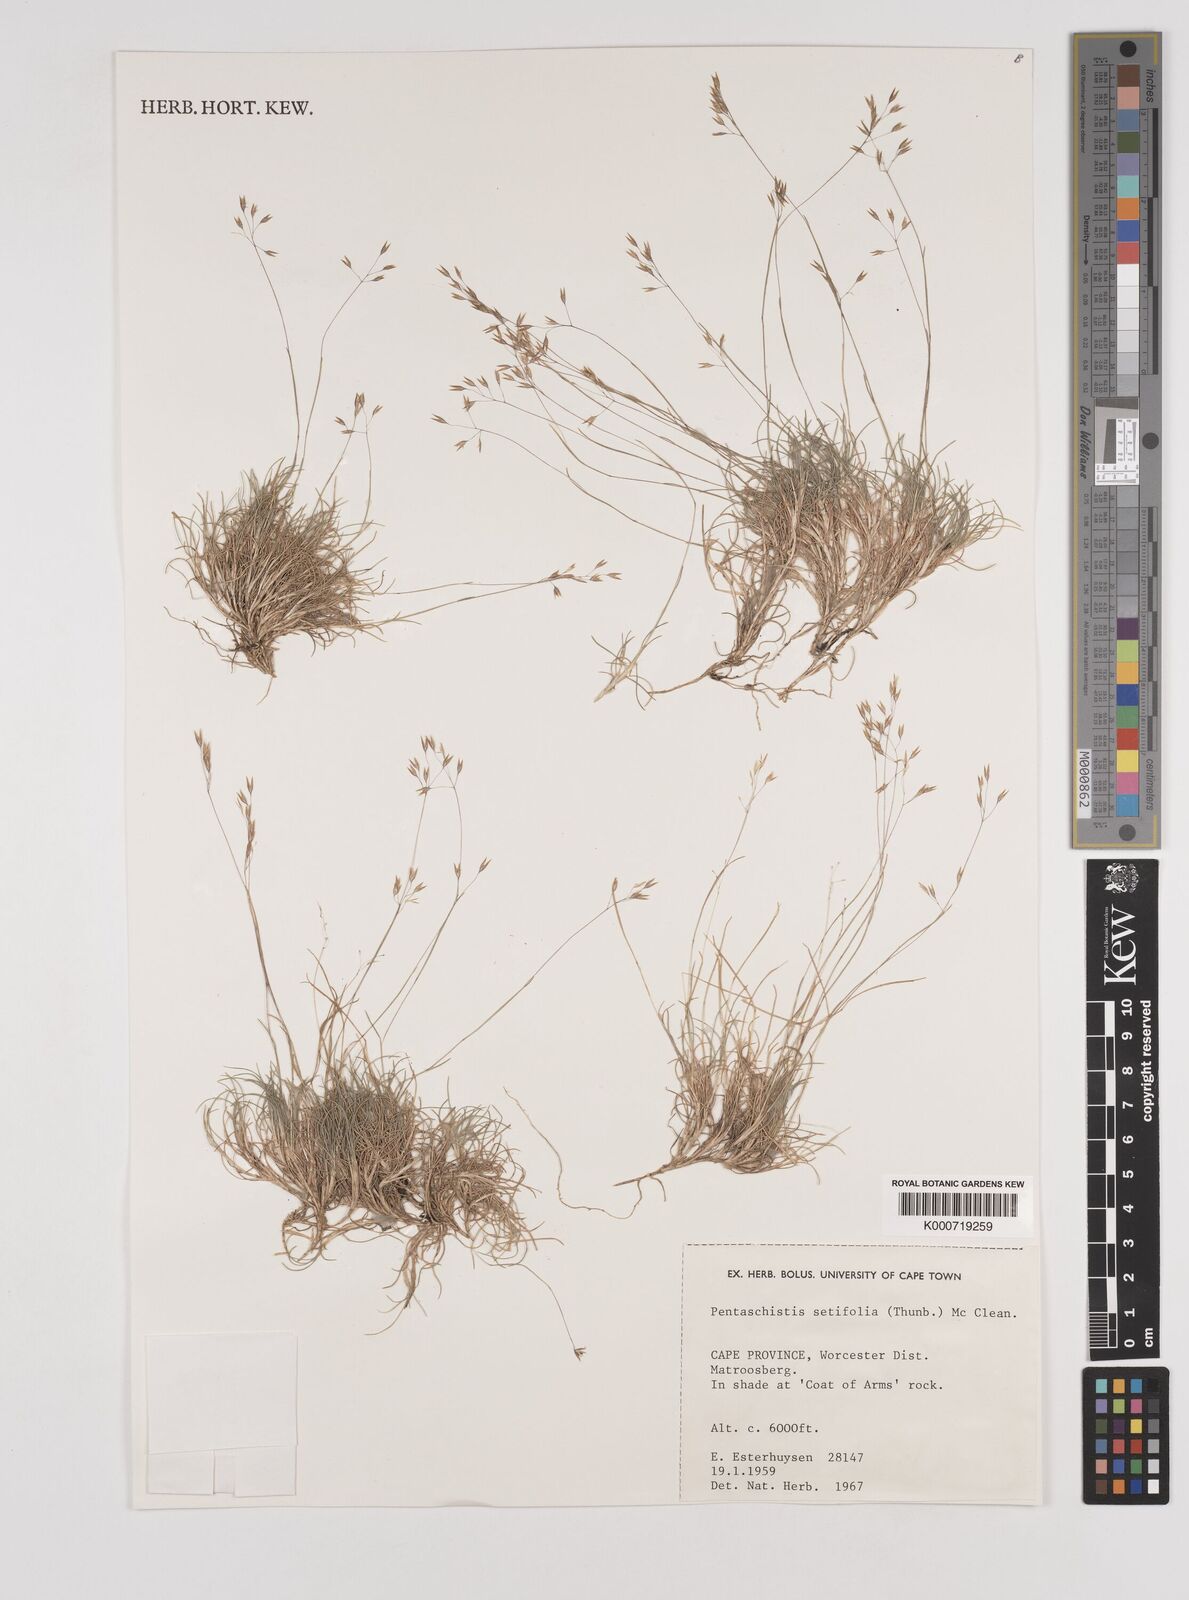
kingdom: Plantae
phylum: Tracheophyta
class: Liliopsida
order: Poales
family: Poaceae
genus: Pentameris
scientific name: Pentameris setifolia
